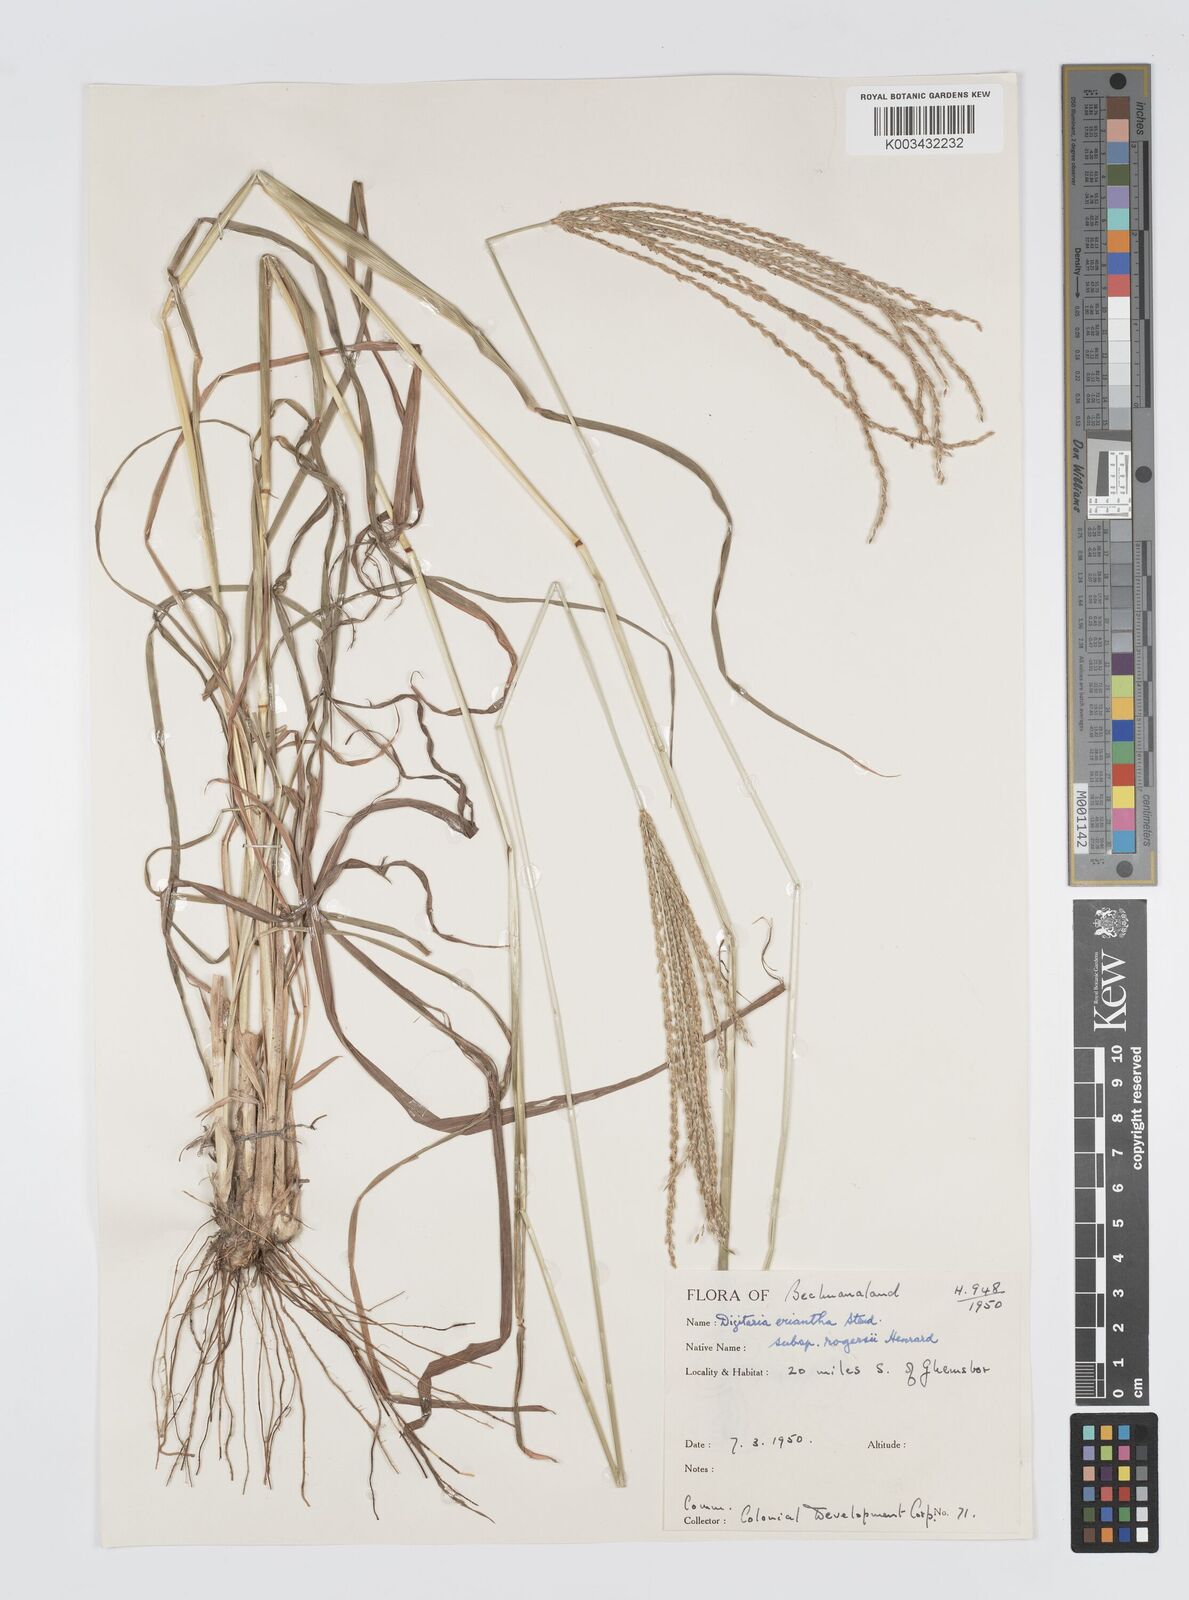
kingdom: Plantae
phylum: Tracheophyta
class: Liliopsida
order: Poales
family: Poaceae
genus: Digitaria
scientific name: Digitaria milanjiana
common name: Madagascar crabgrass
